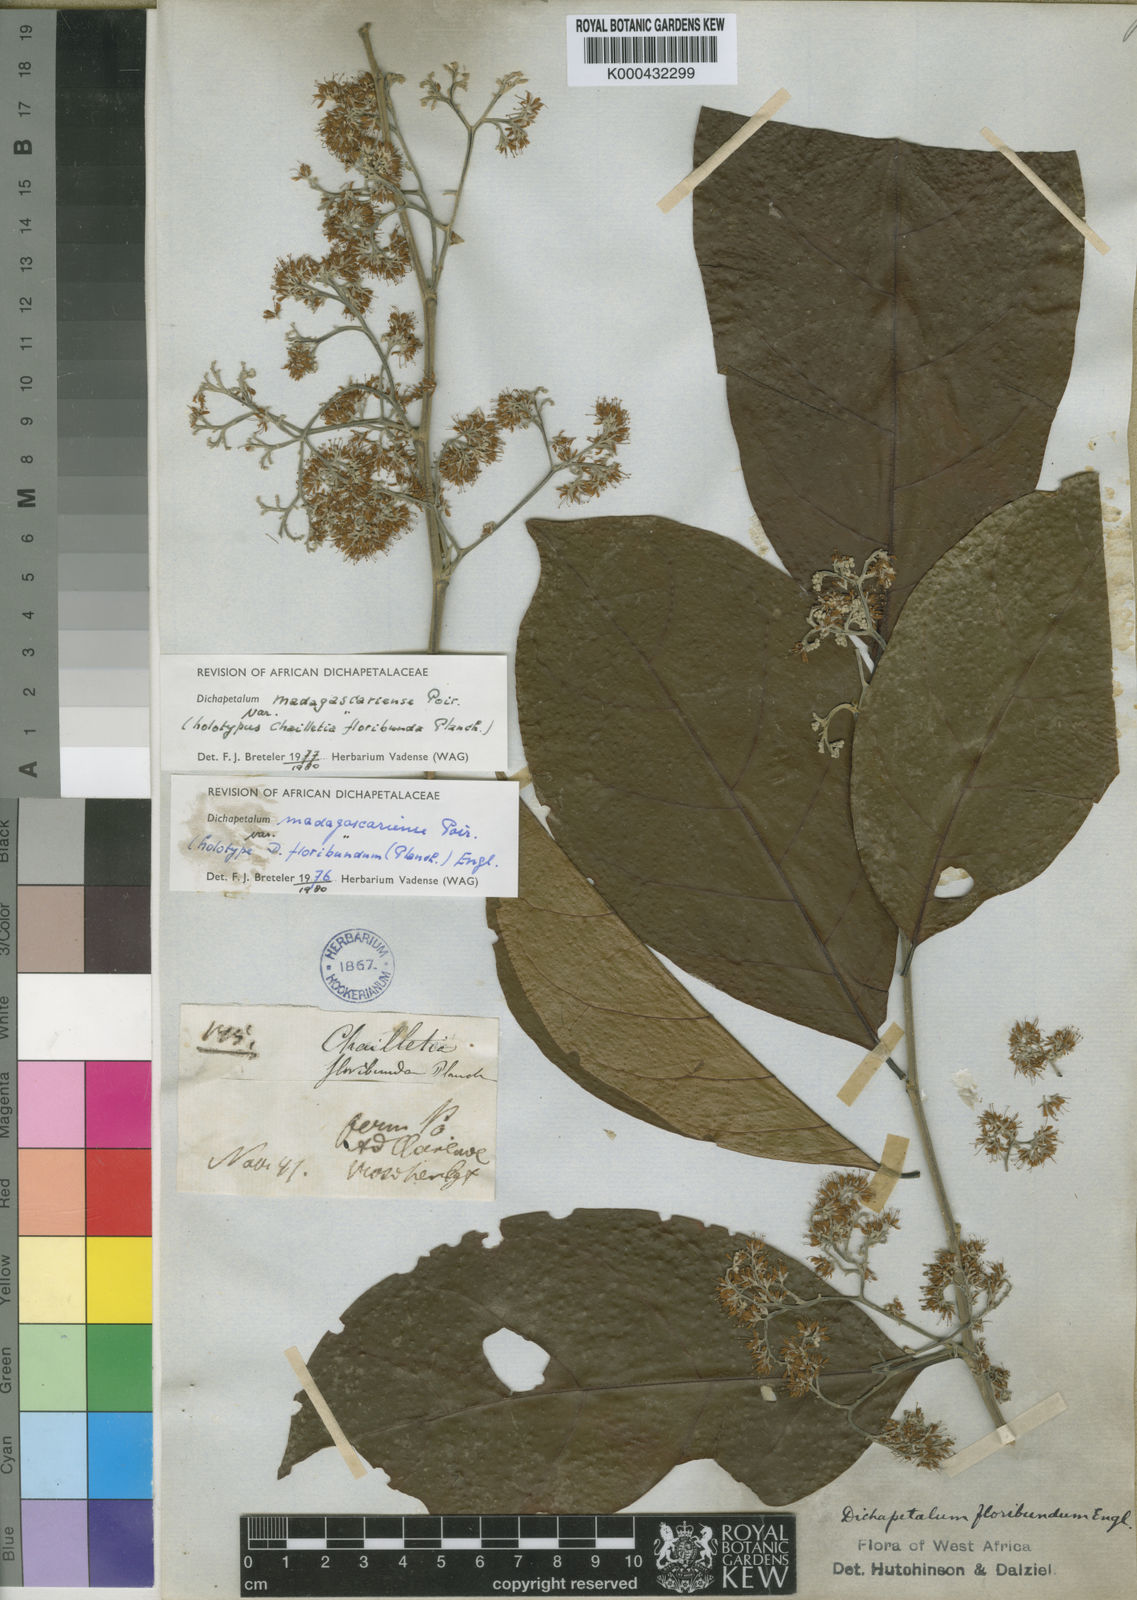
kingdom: Plantae
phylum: Tracheophyta
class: Magnoliopsida
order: Malpighiales
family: Dichapetalaceae
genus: Dichapetalum
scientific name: Dichapetalum madagascariense
